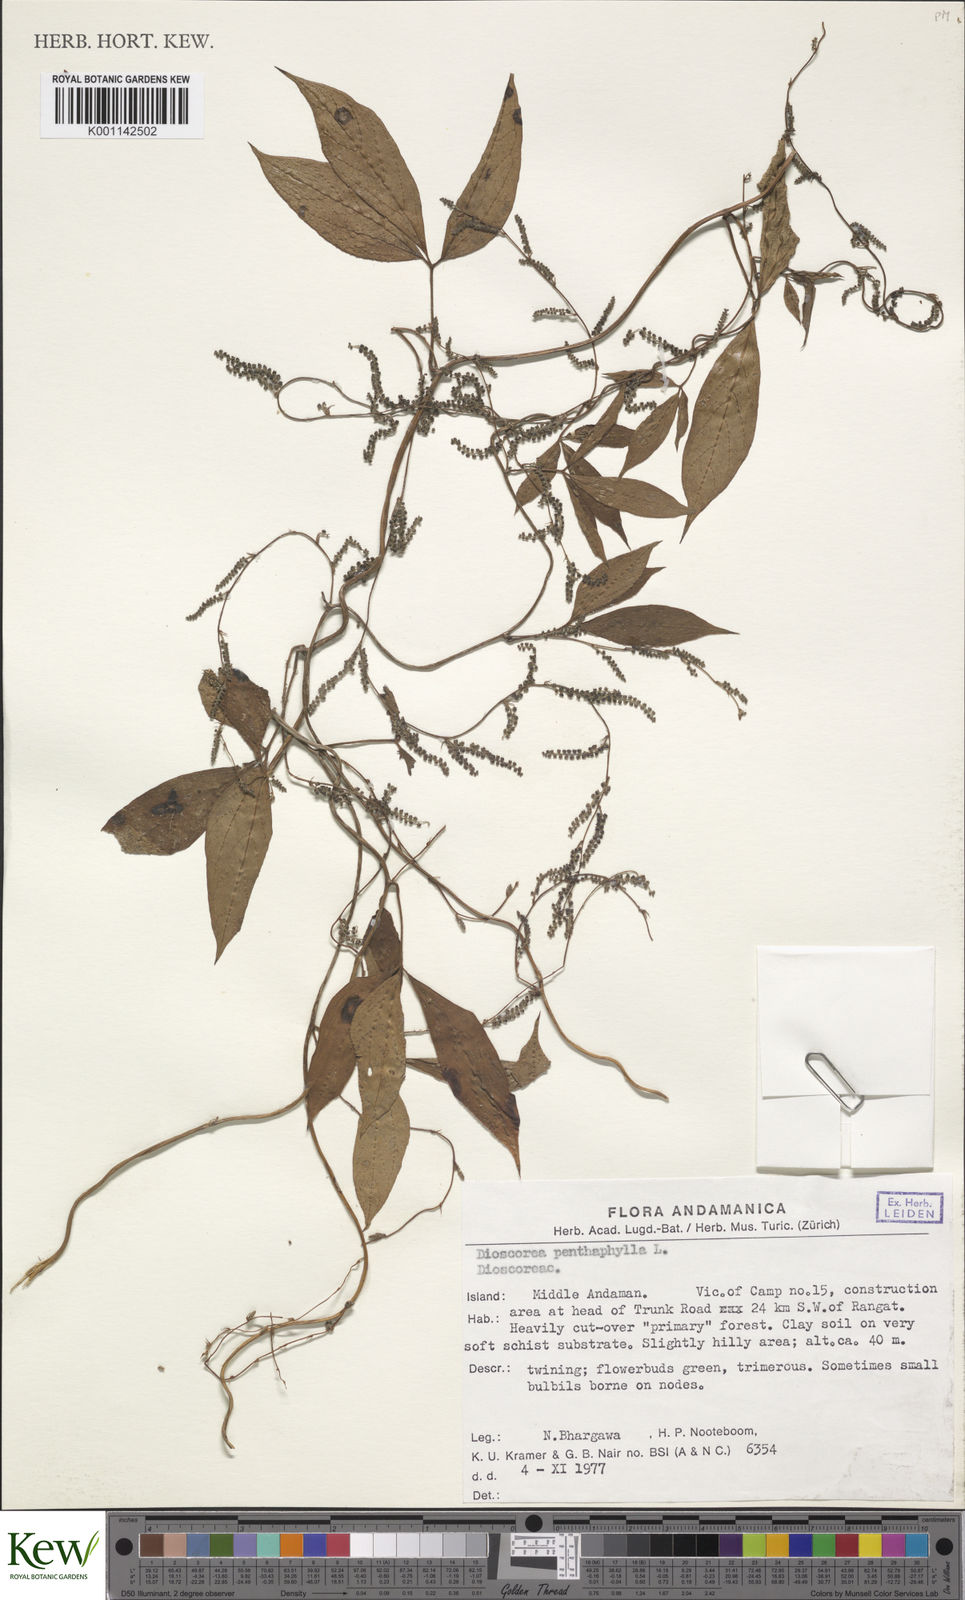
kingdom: Plantae
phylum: Tracheophyta
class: Liliopsida
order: Dioscoreales
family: Dioscoreaceae
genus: Dioscorea
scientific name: Dioscorea pentaphylla
